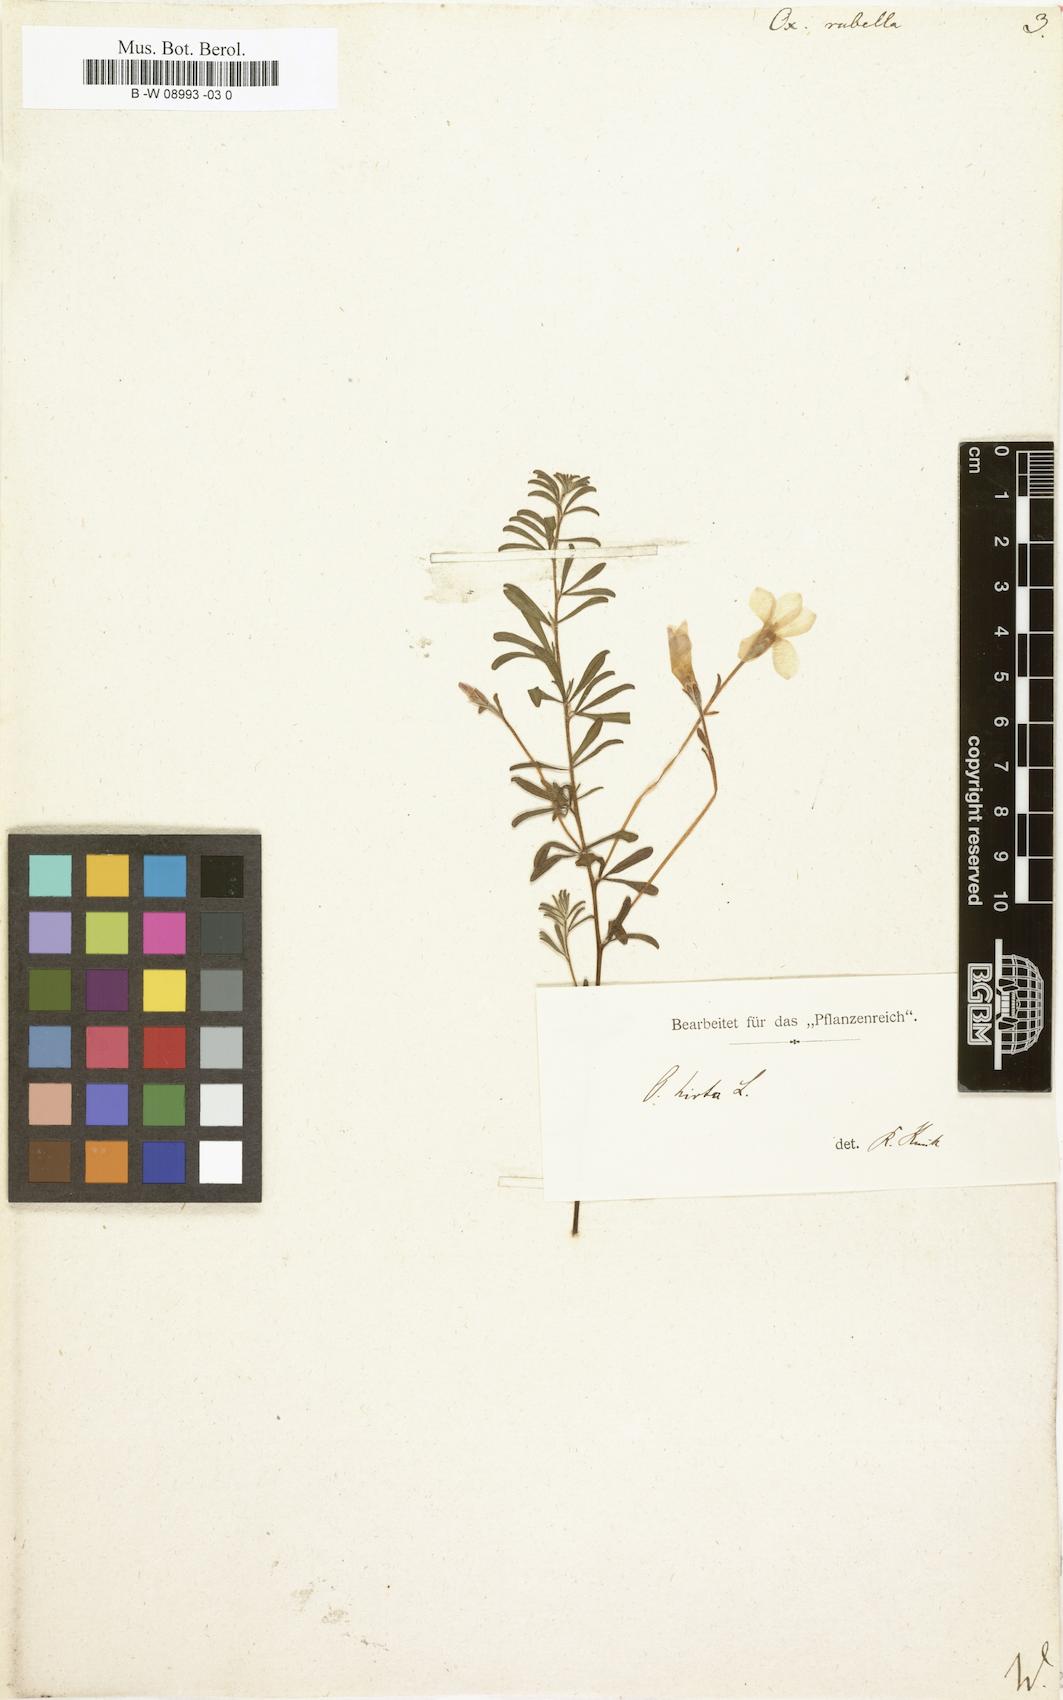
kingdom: Plantae
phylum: Tracheophyta
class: Magnoliopsida
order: Oxalidales
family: Oxalidaceae
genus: Oxalis
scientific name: Oxalis hirta
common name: Tropical woodsorrel
